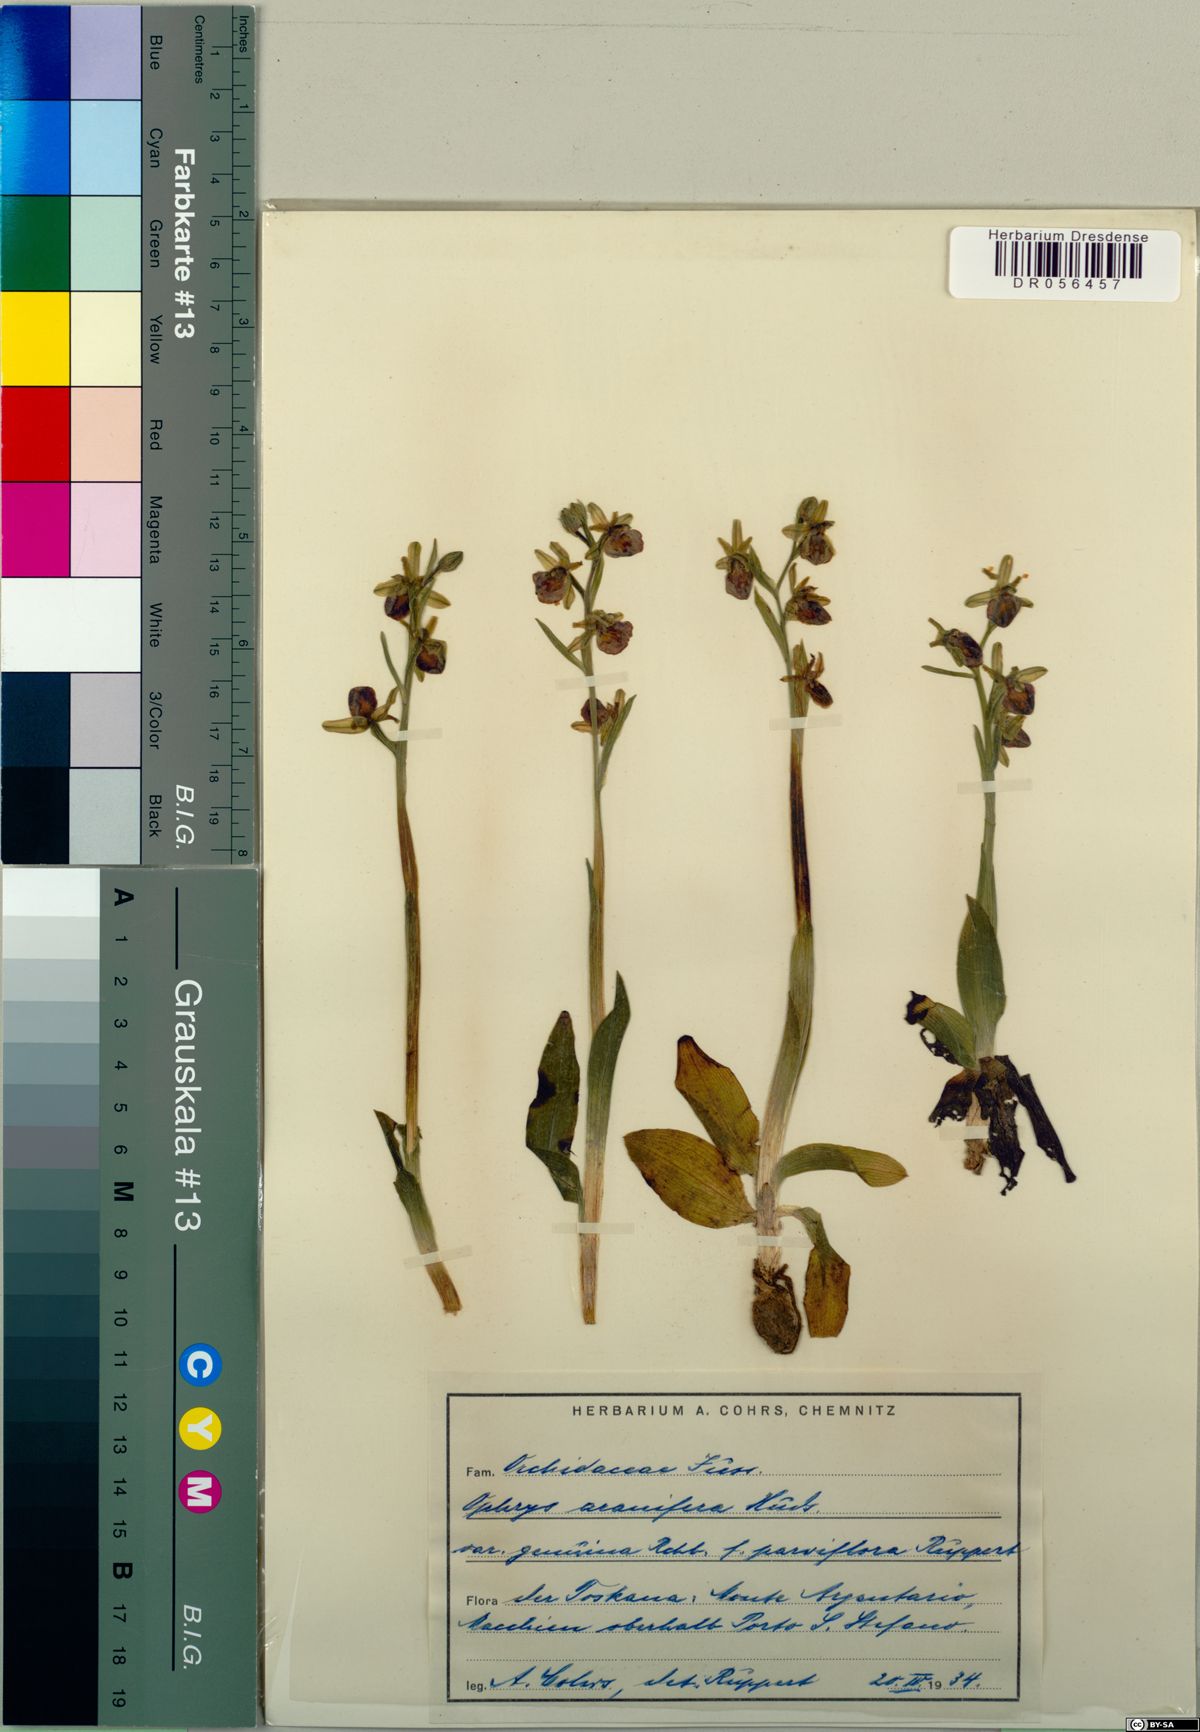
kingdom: Plantae
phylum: Tracheophyta
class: Liliopsida
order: Asparagales
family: Orchidaceae
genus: Ophrys
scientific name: Ophrys sphegodes
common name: Early spider-orchid
